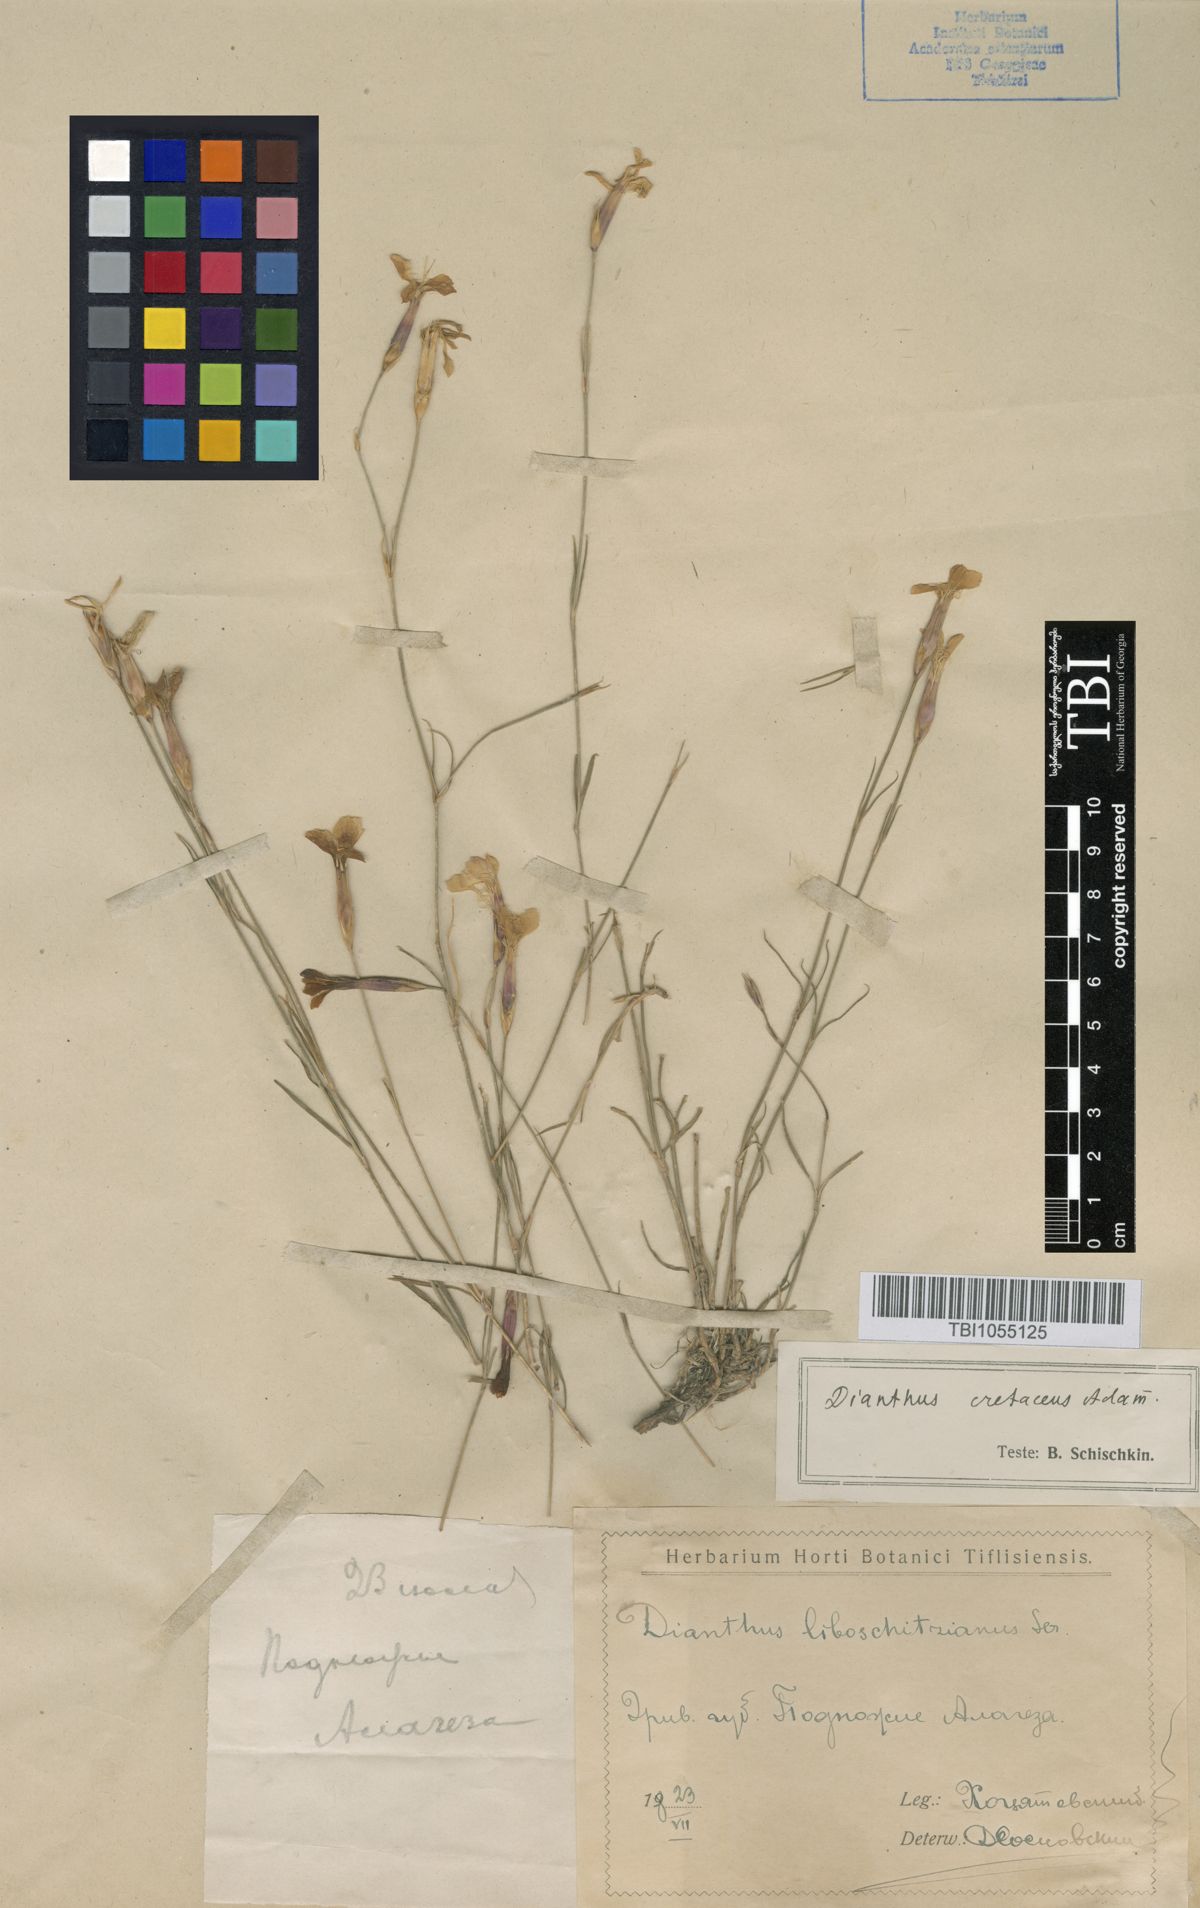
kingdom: Plantae
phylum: Tracheophyta
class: Magnoliopsida
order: Caryophyllales
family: Caryophyllaceae
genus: Dianthus
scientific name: Dianthus cretaceus
